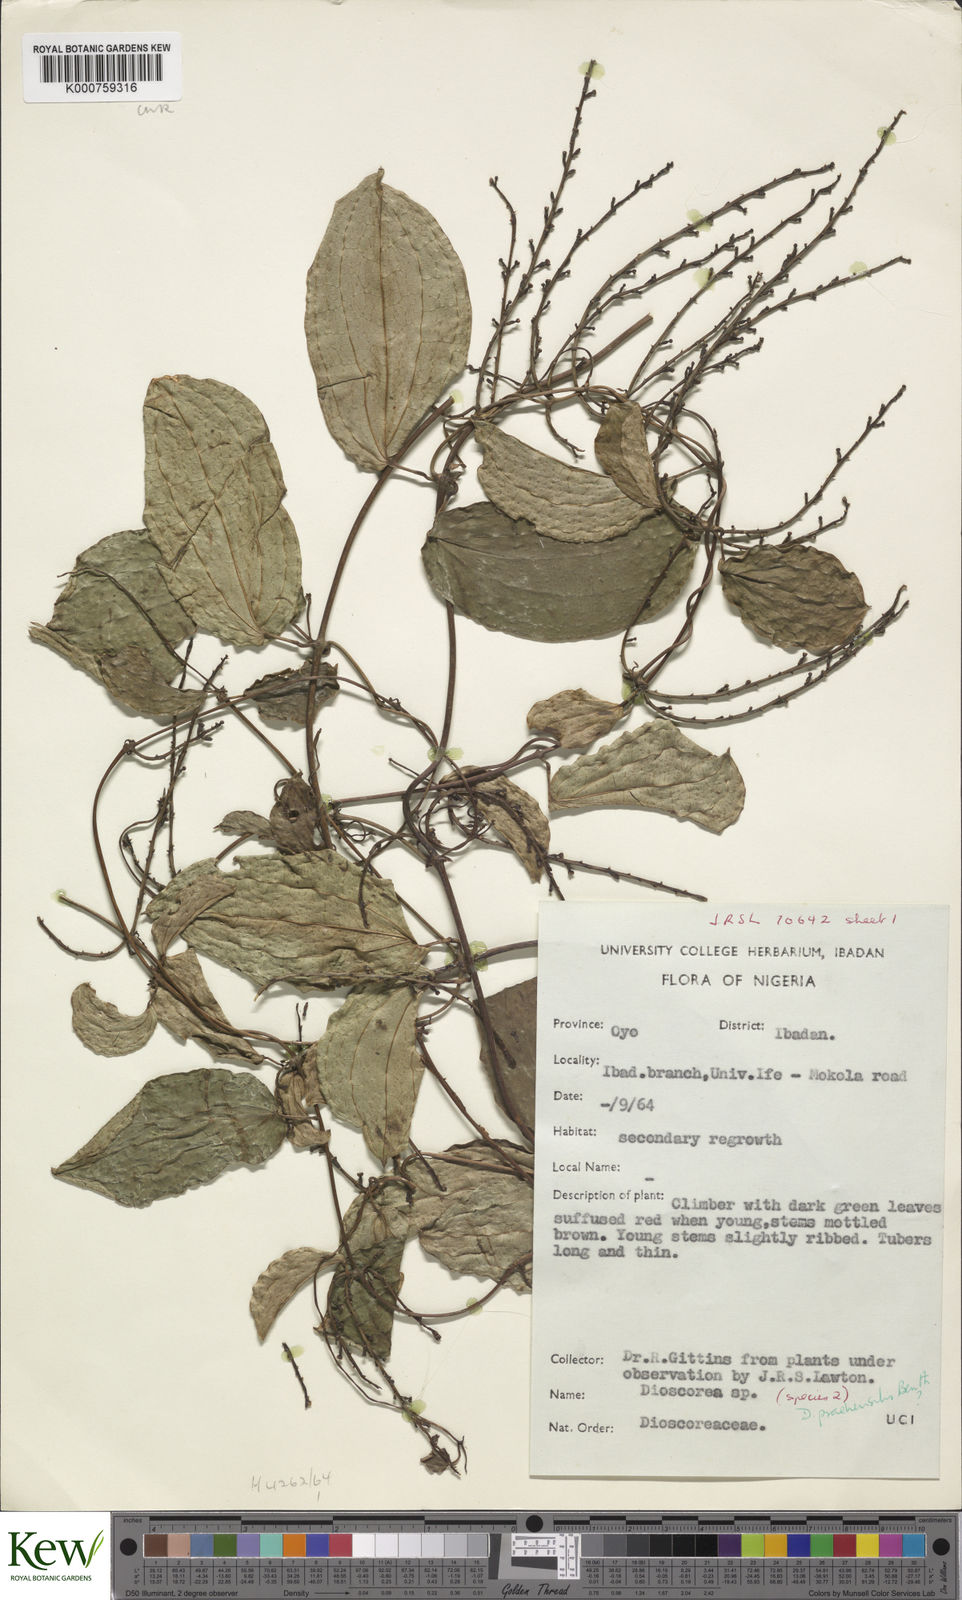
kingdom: Plantae
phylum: Tracheophyta
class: Liliopsida
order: Dioscoreales
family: Dioscoreaceae
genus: Dioscorea
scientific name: Dioscorea praehensilis
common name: Bush yam
